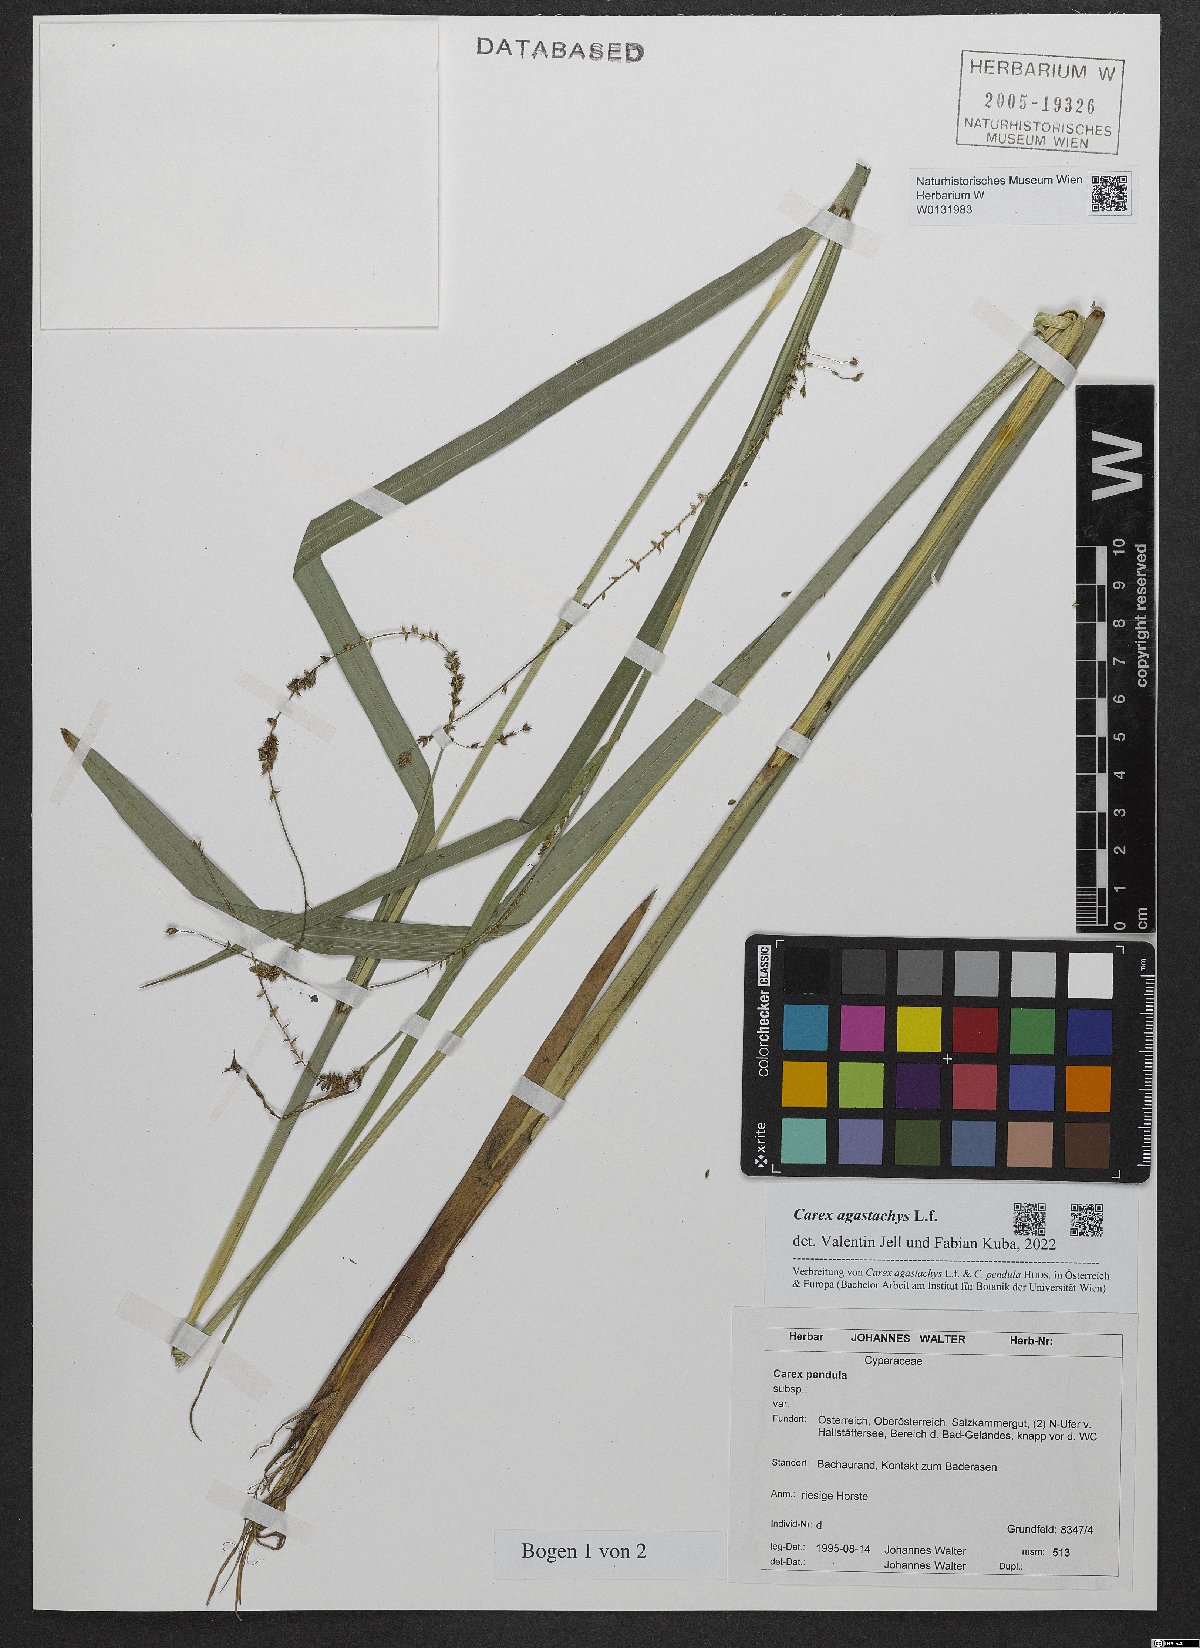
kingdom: Plantae
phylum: Tracheophyta
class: Liliopsida
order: Poales
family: Cyperaceae
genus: Carex
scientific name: Carex agastachys
